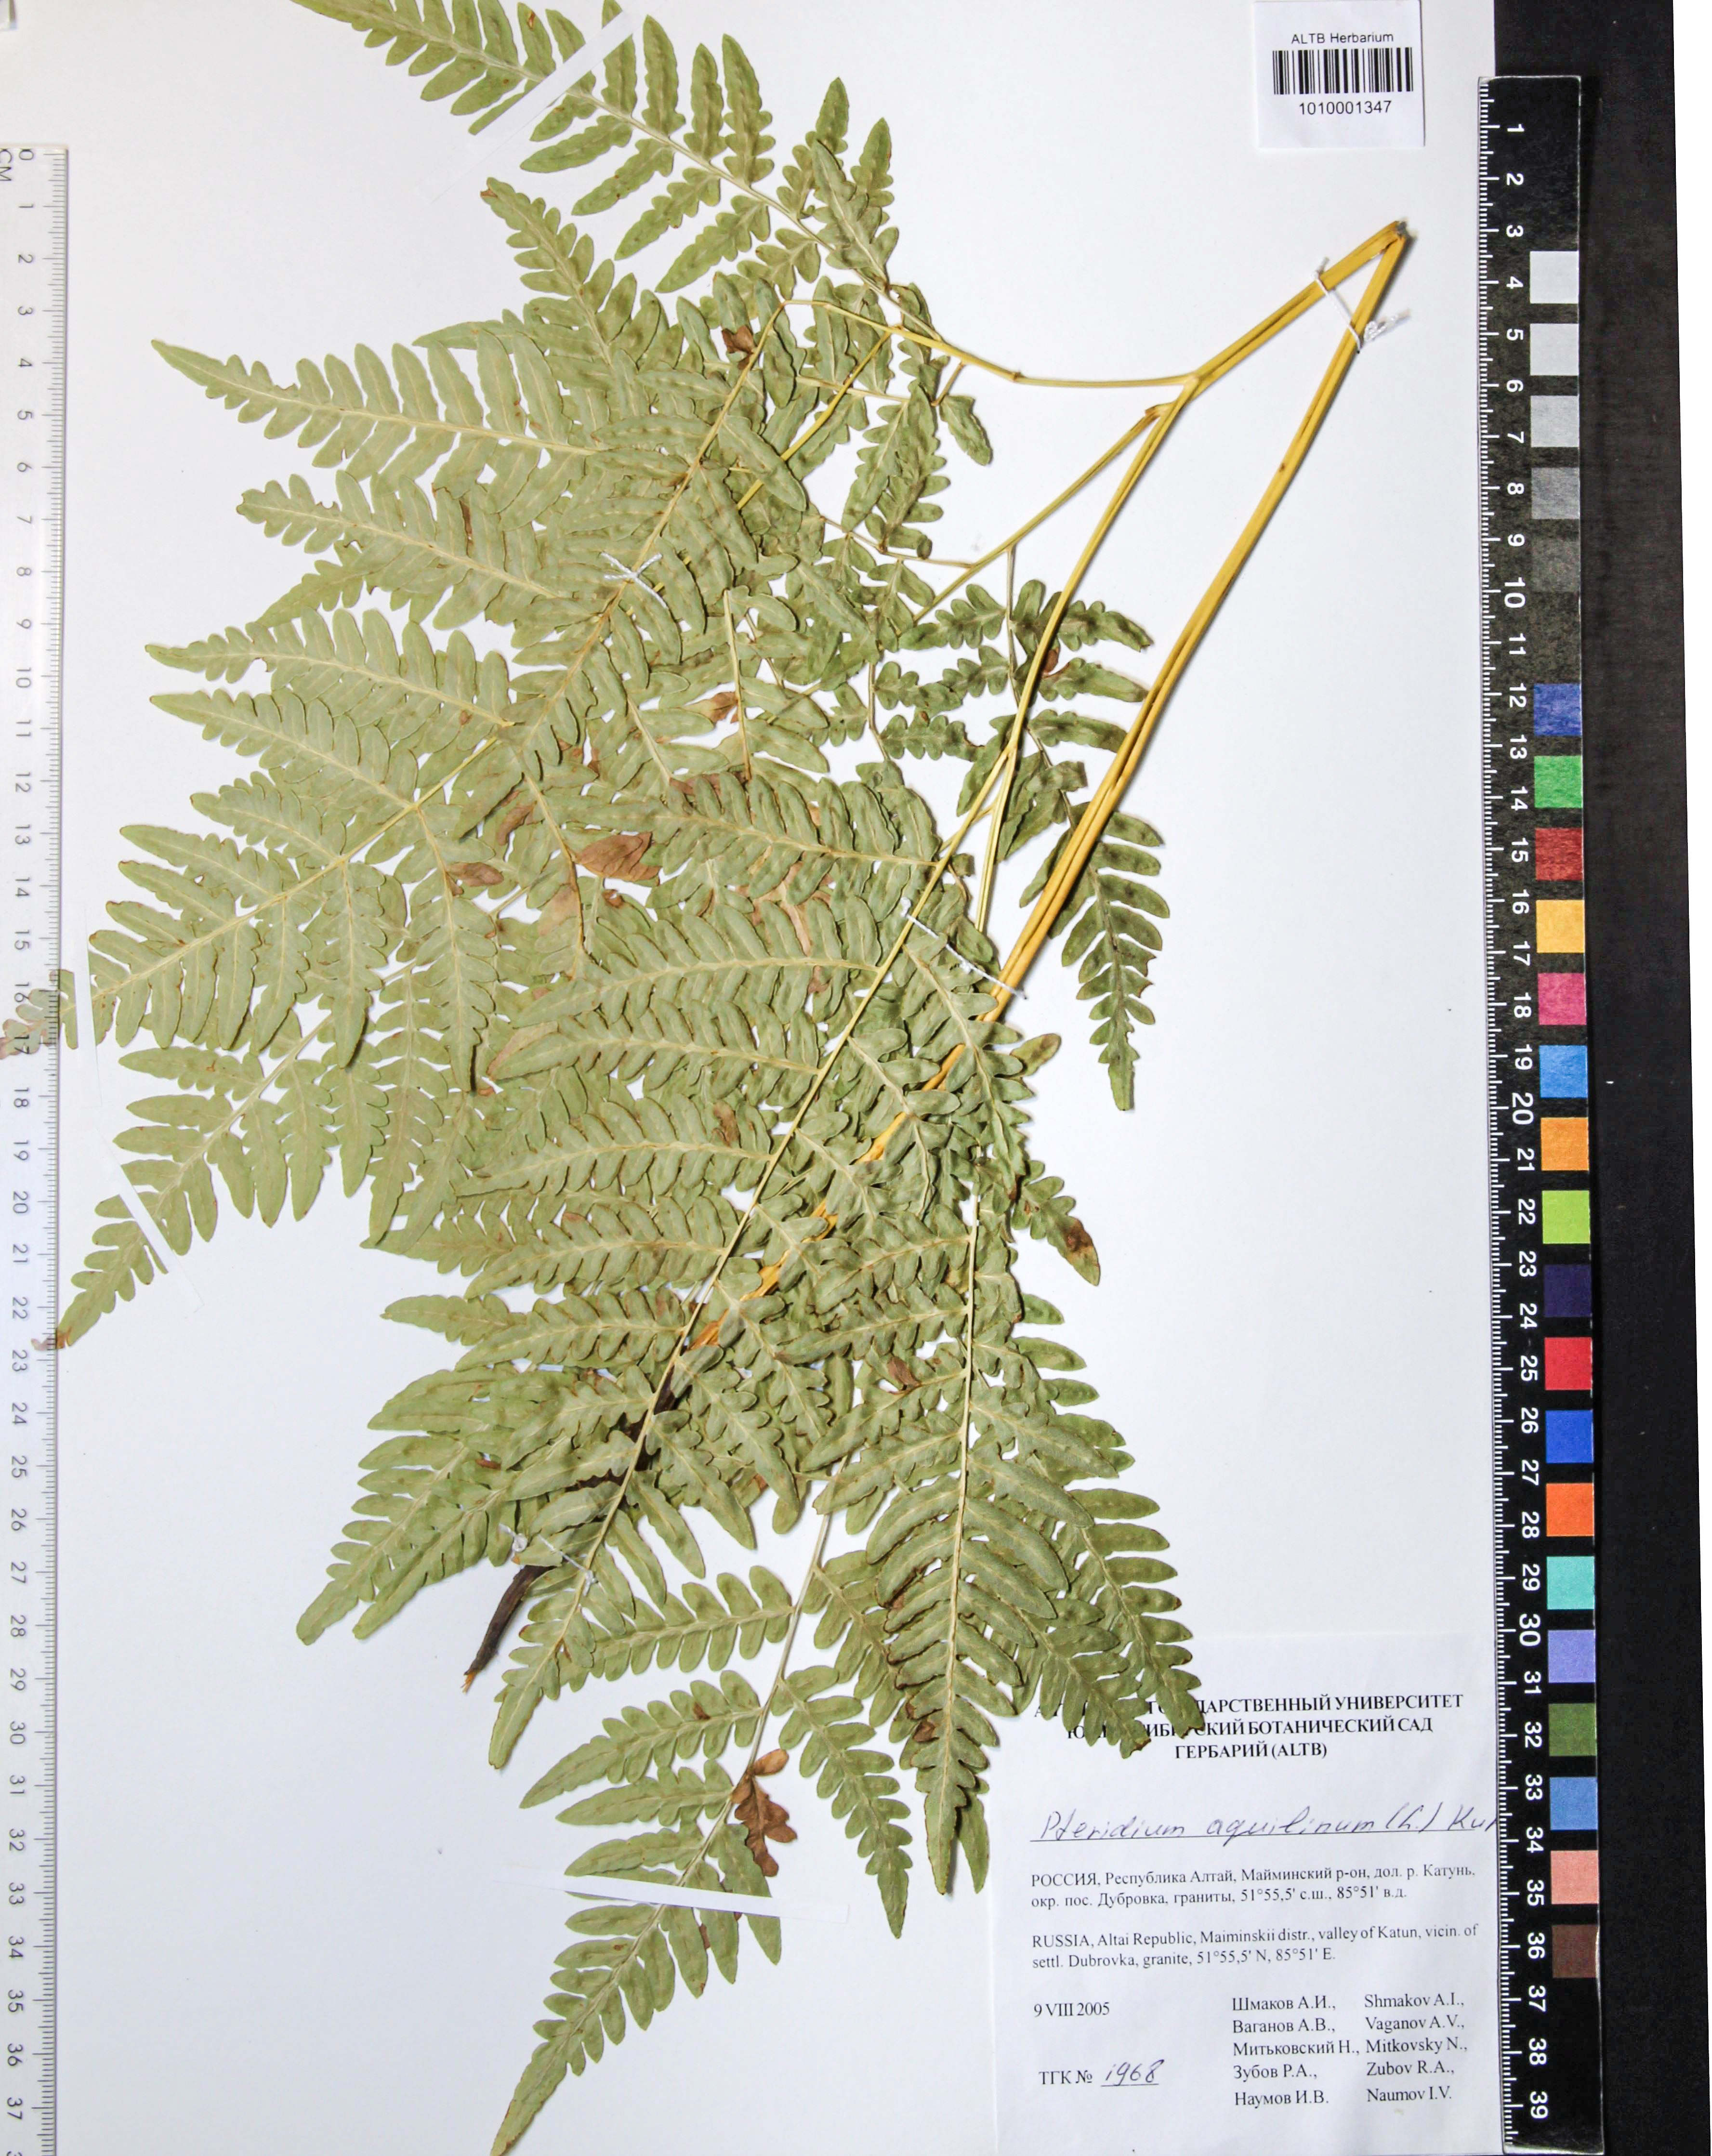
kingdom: Plantae
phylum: Tracheophyta
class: Polypodiopsida
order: Polypodiales
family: Dennstaedtiaceae
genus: Pteridium
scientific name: Pteridium aquilinum
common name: Bracken
